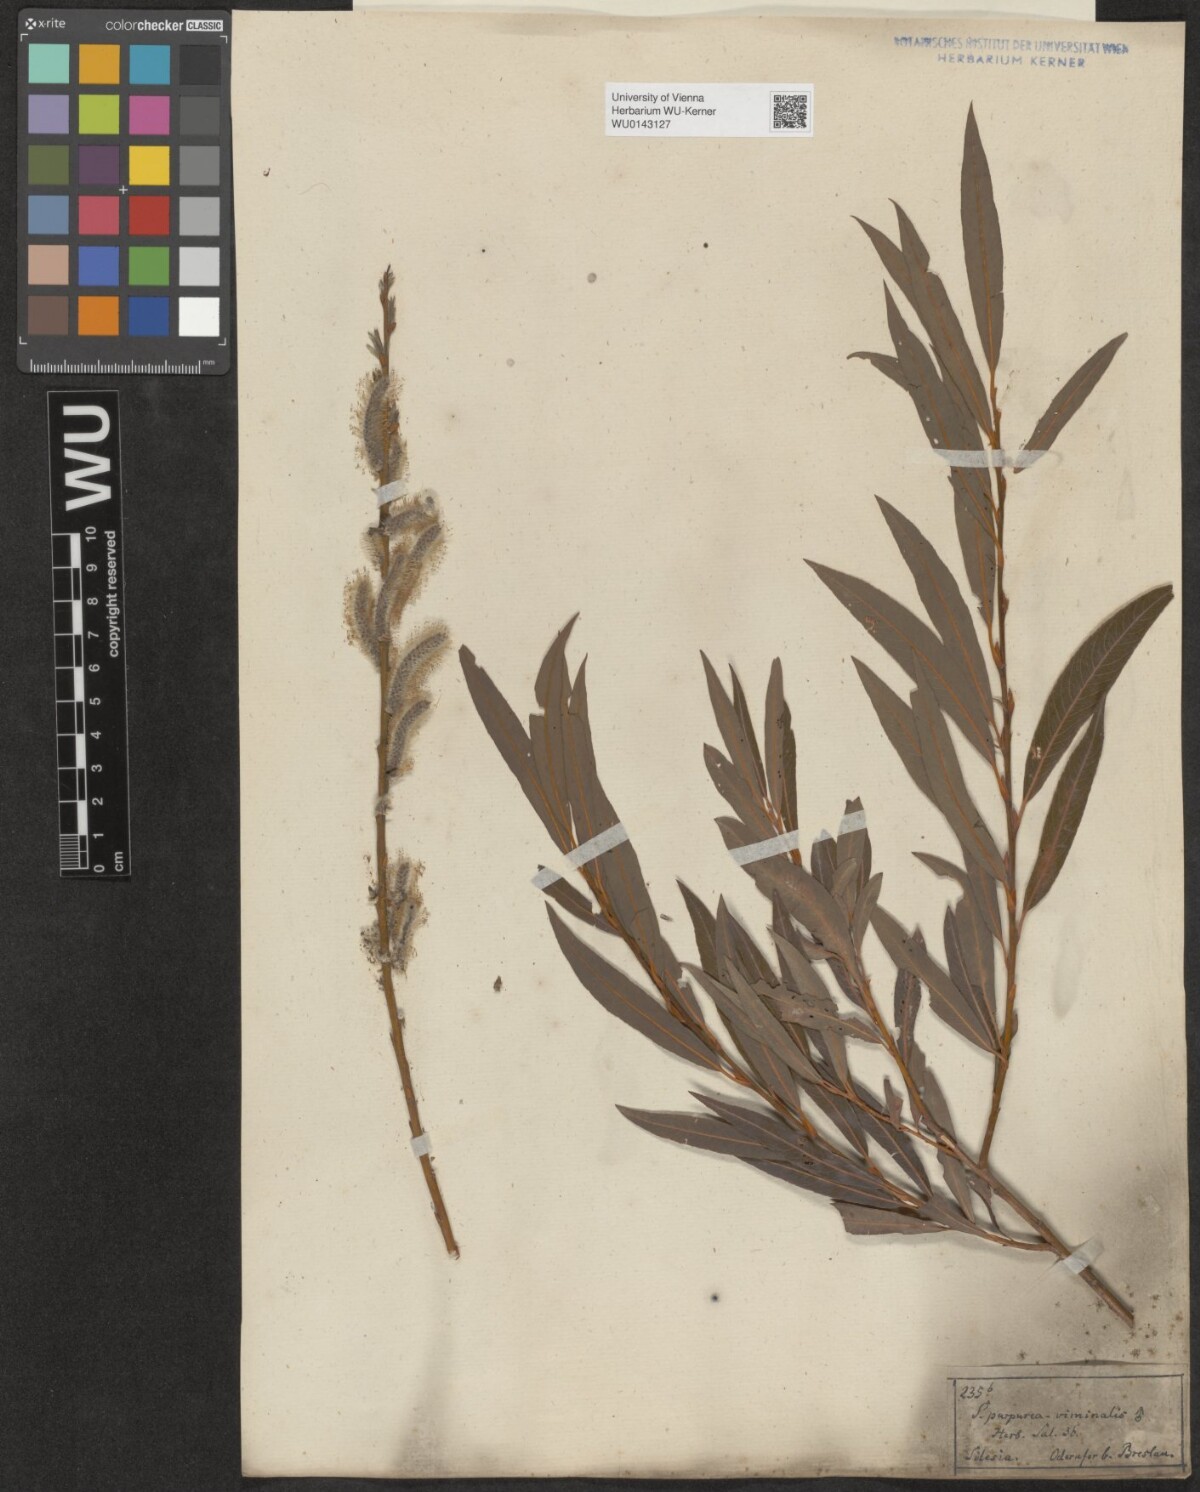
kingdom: Plantae
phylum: Tracheophyta
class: Magnoliopsida
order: Malpighiales
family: Salicaceae
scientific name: Salicaceae
